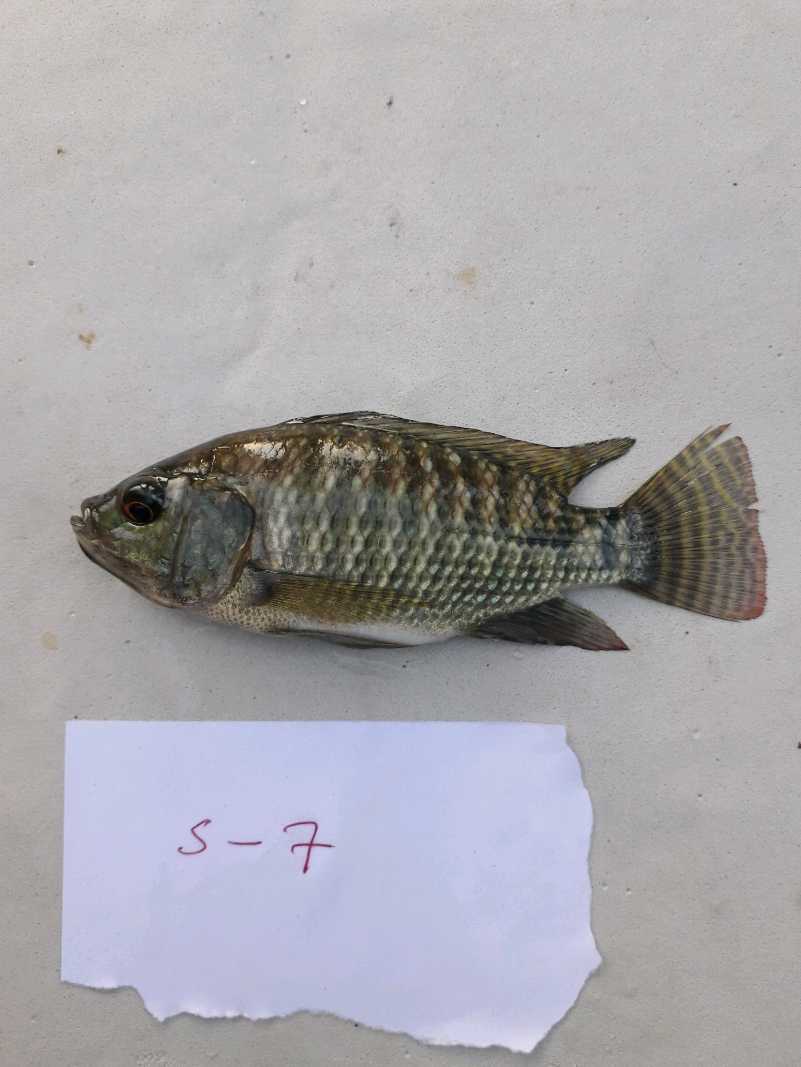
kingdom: Animalia
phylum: Chordata
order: Perciformes
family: Cichlidae
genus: Oreochromis
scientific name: Oreochromis niloticus
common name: Nile tilapia
